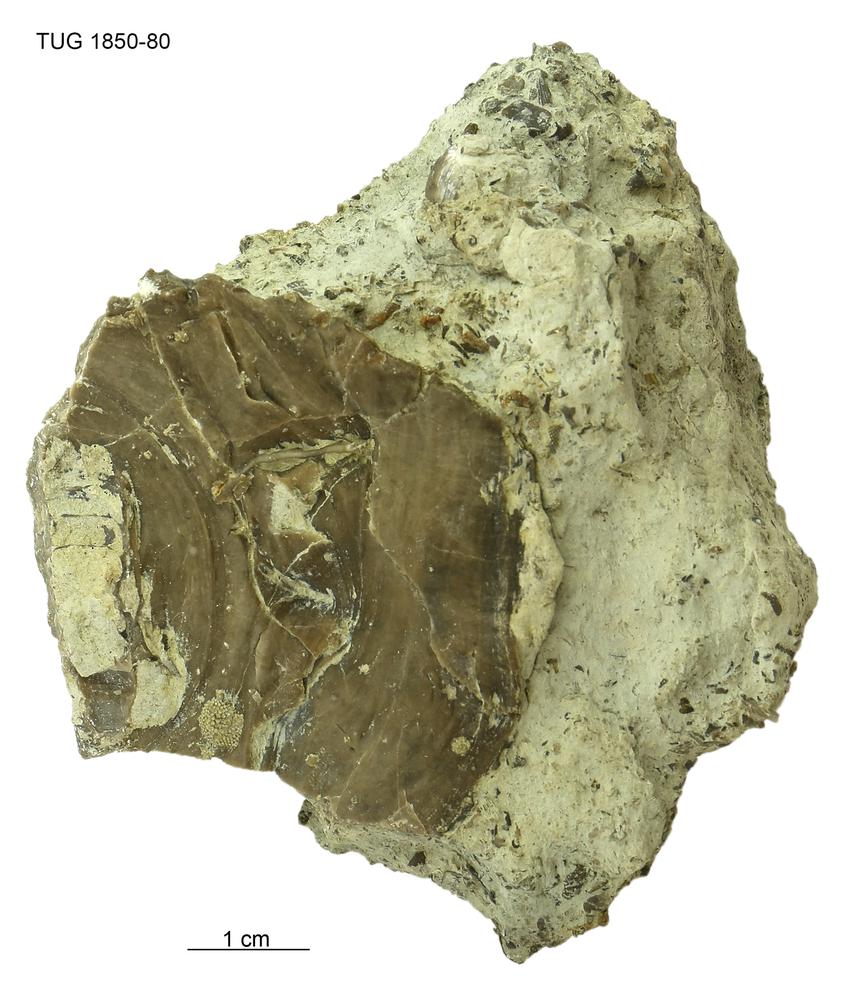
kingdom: Animalia
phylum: Porifera
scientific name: Porifera
